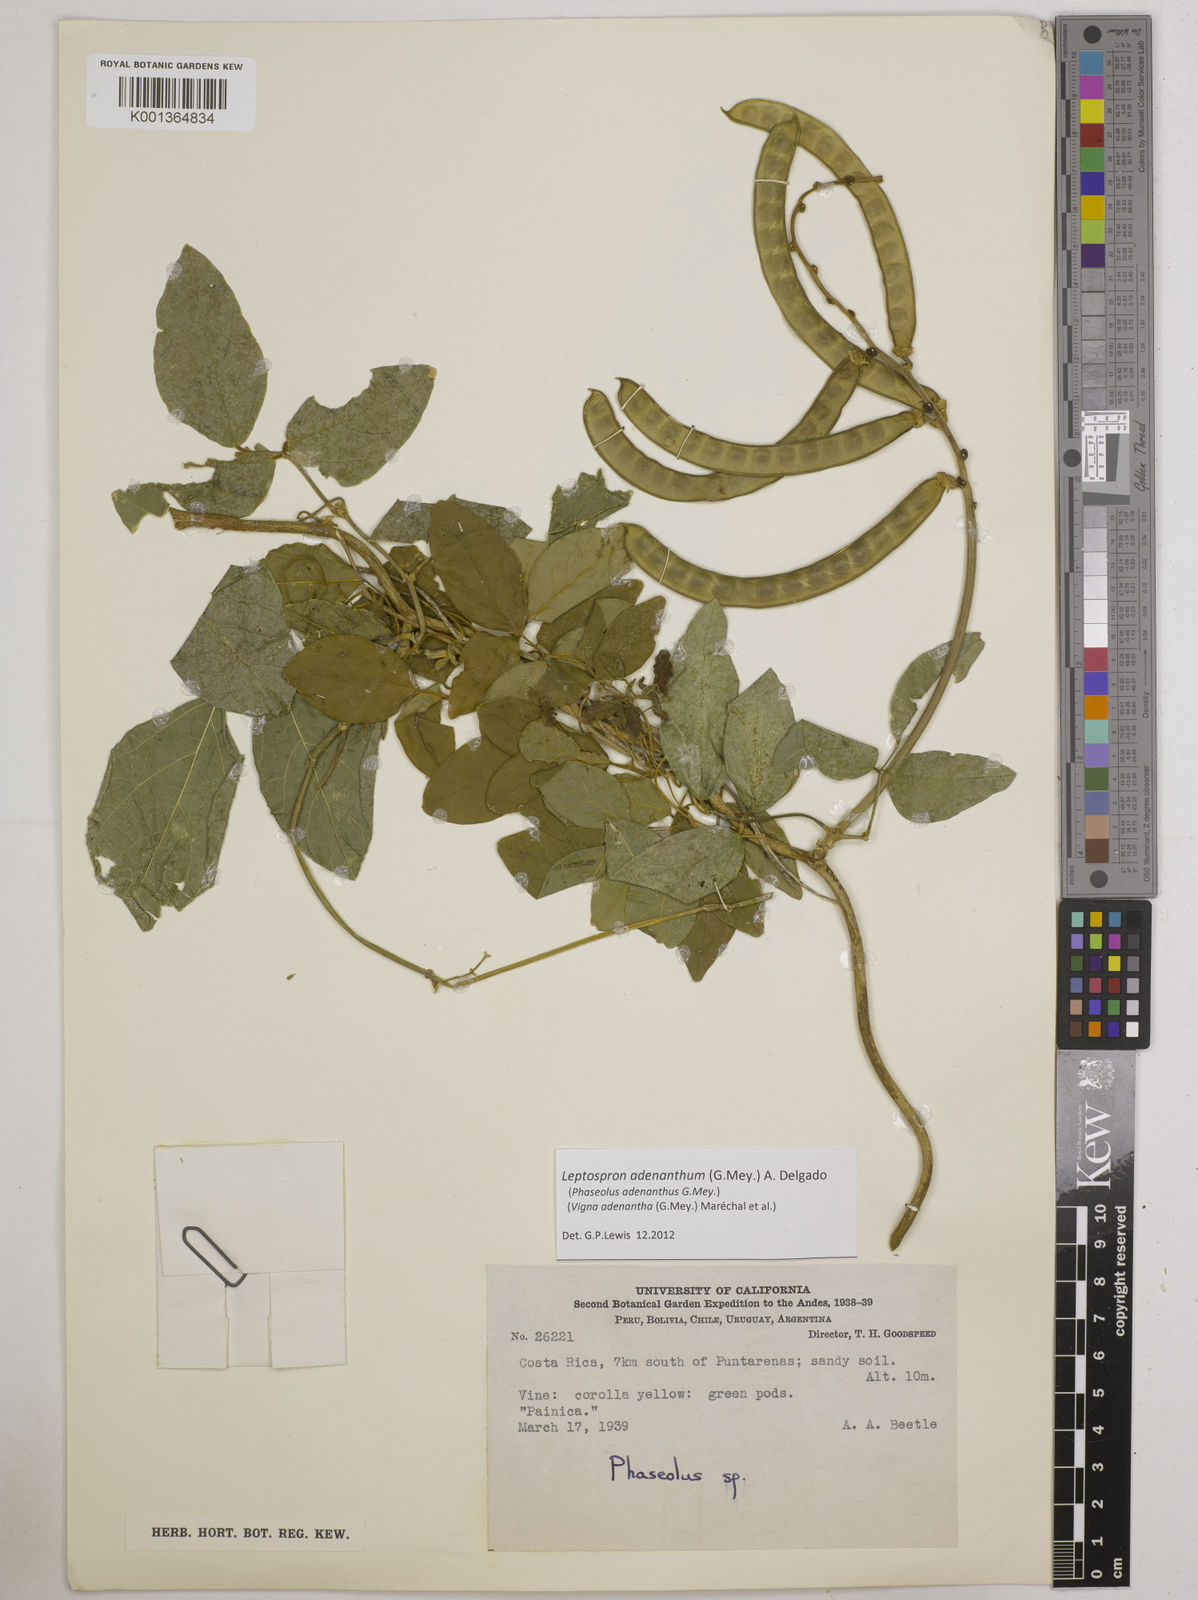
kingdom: Plantae
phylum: Tracheophyta
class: Magnoliopsida
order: Fabales
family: Fabaceae
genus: Leptospron
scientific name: Leptospron adenanthum
